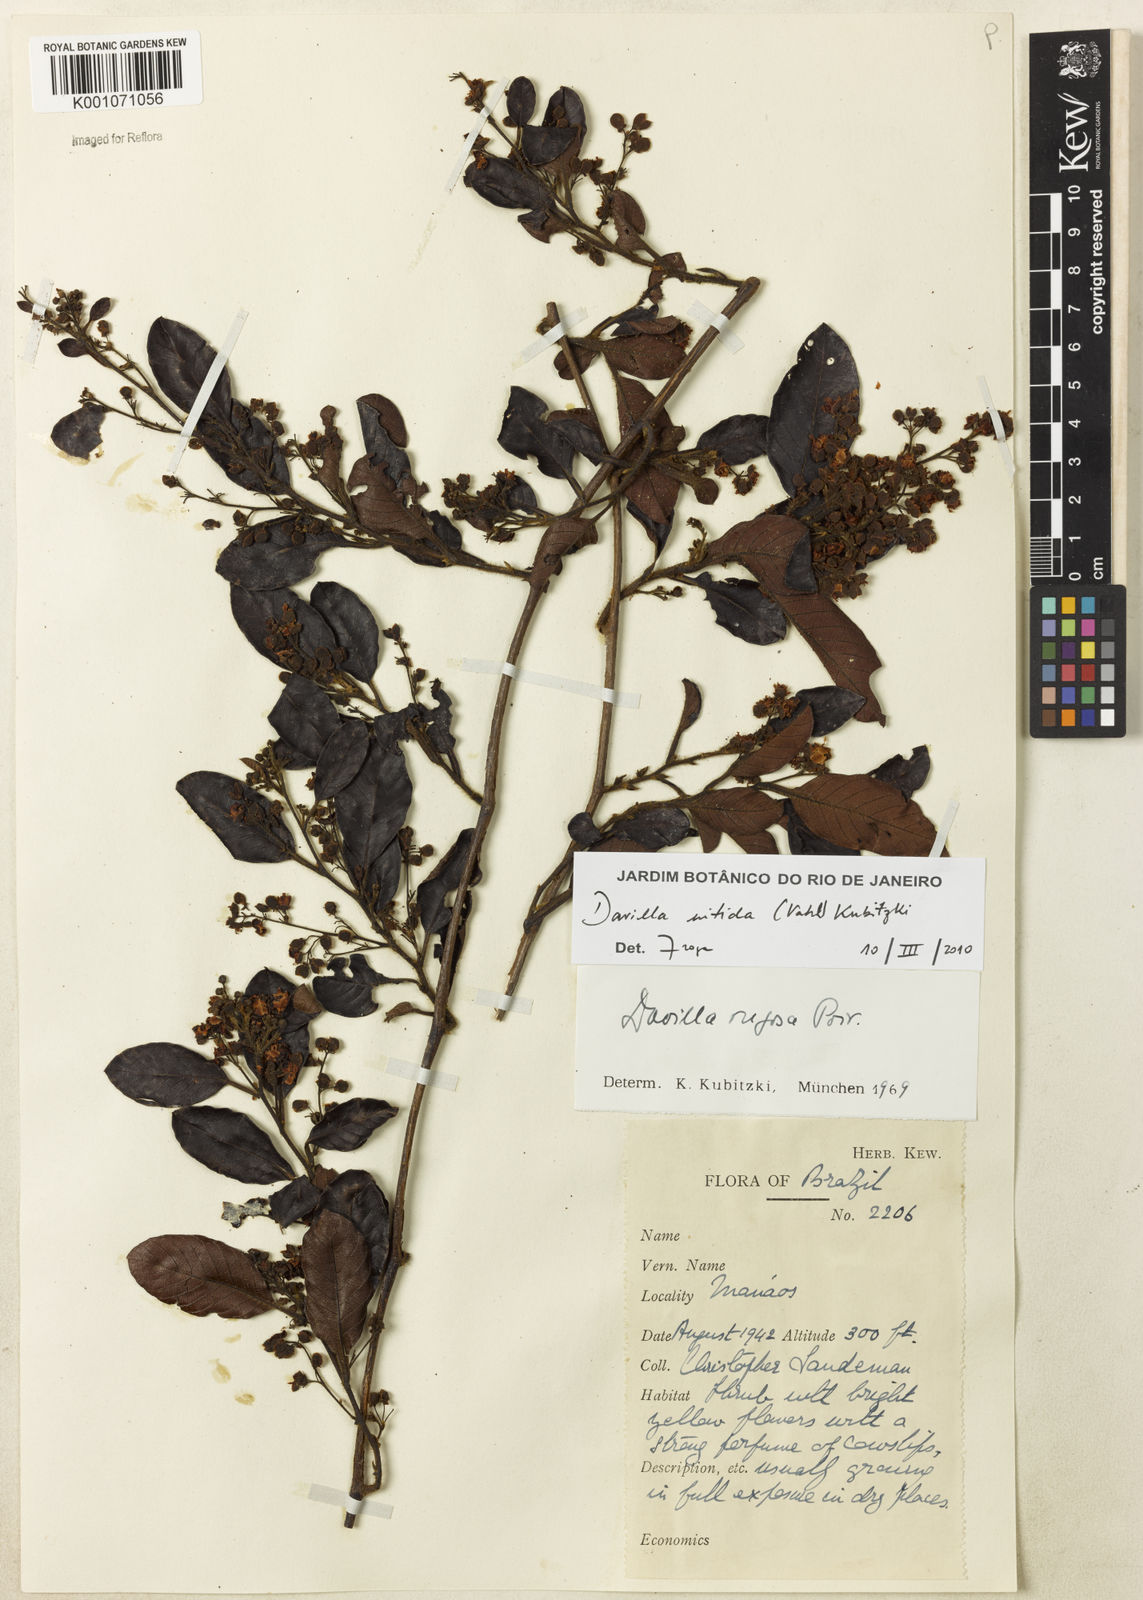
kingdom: Plantae
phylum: Tracheophyta
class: Magnoliopsida
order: Dilleniales
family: Dilleniaceae
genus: Davilla
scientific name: Davilla kunthii
